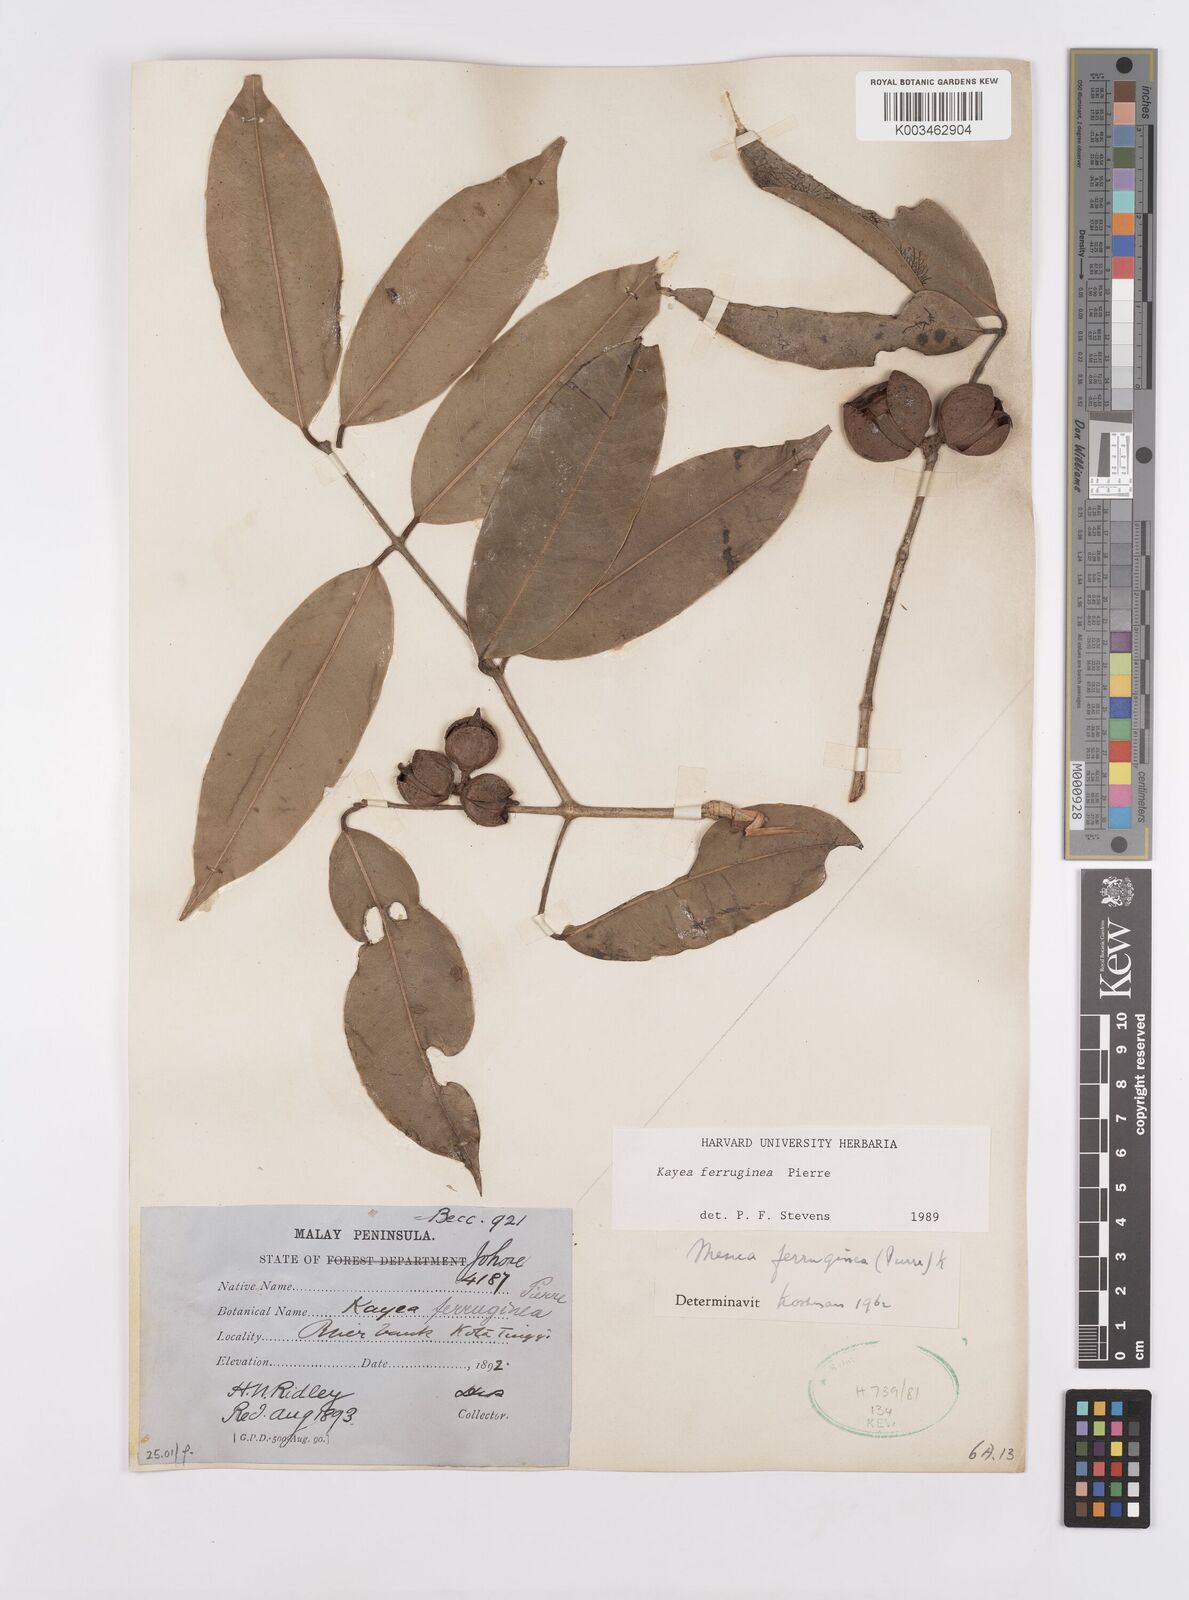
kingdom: Plantae
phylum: Tracheophyta
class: Magnoliopsida
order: Malpighiales
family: Calophyllaceae
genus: Kayea
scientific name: Kayea manii
